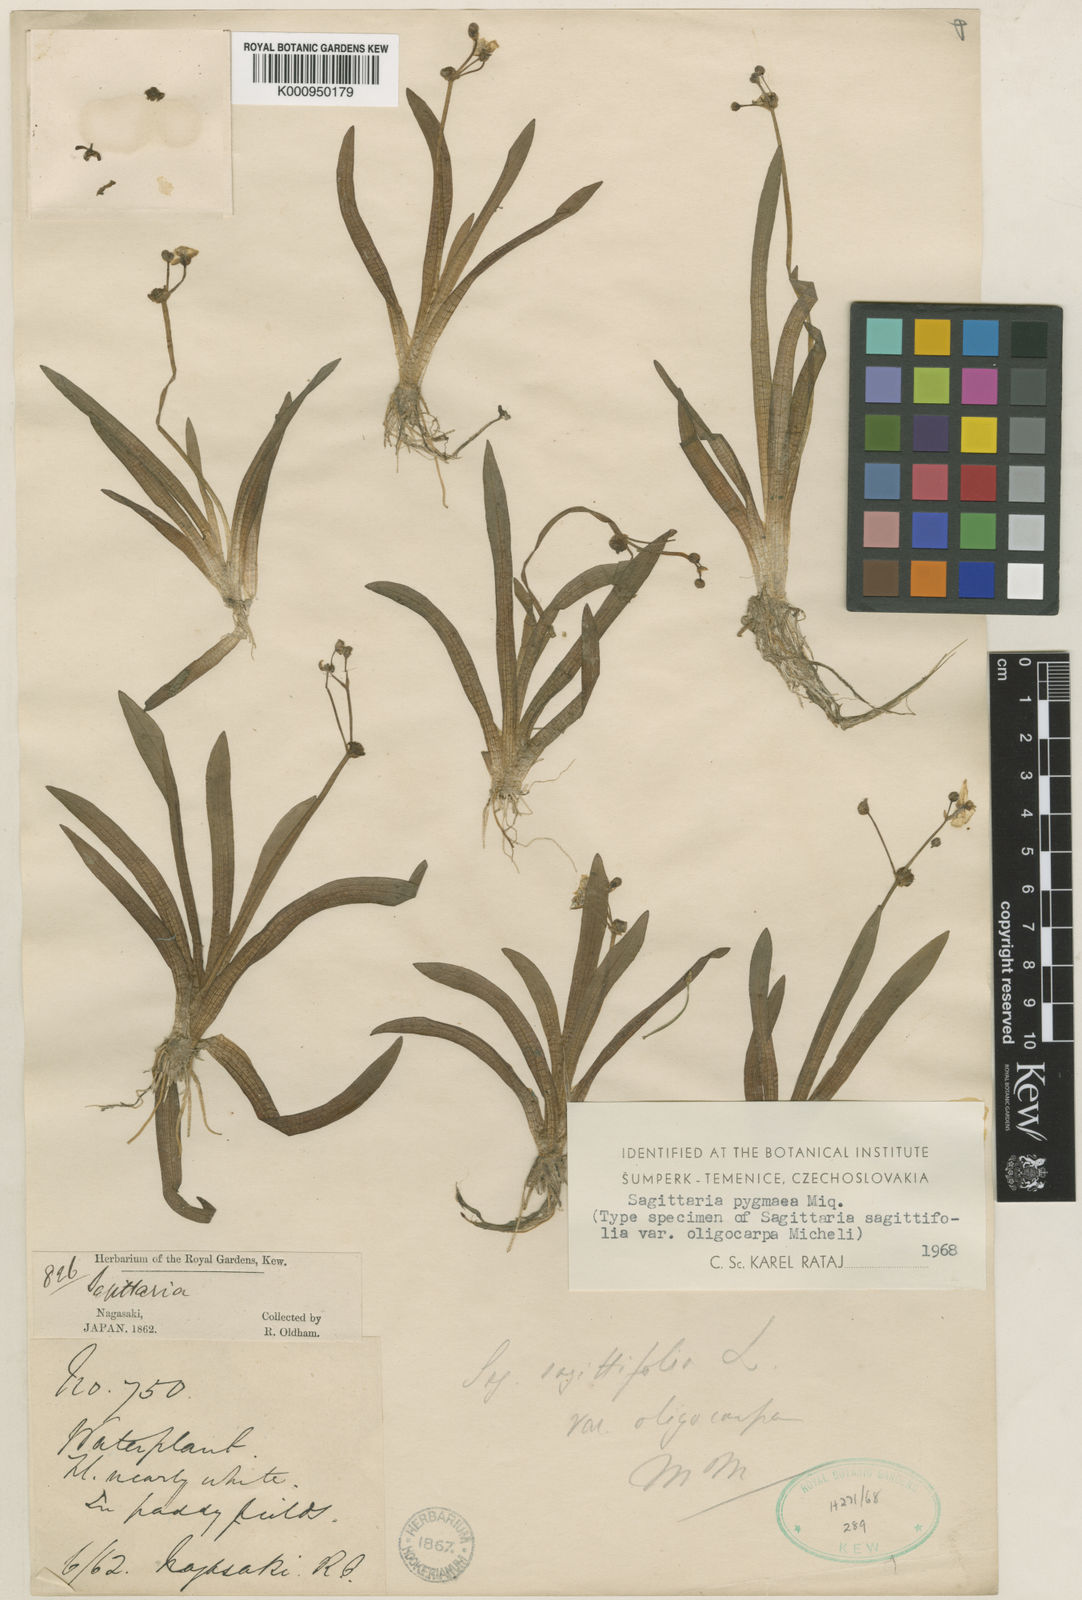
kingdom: Plantae
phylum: Tracheophyta
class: Liliopsida
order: Alismatales
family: Alismataceae
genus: Sagittaria
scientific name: Sagittaria pygmaea
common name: Pygmy arrowhead
